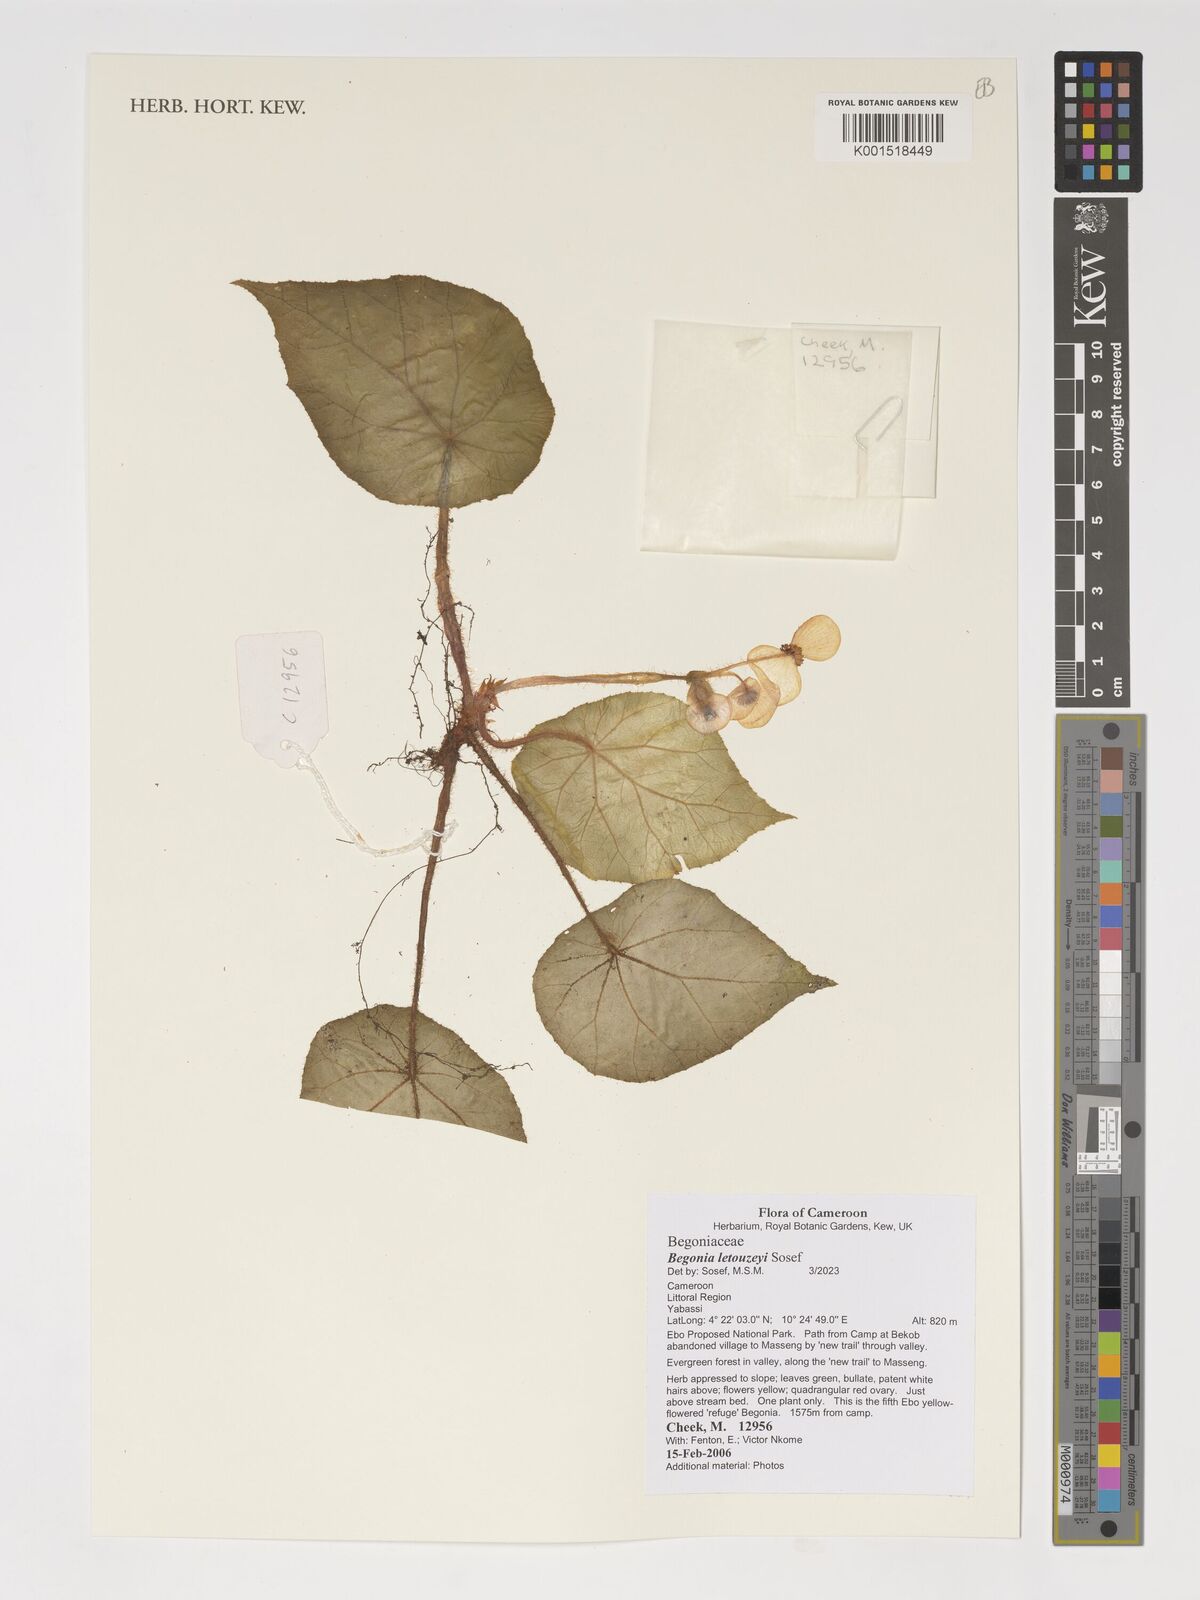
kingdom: Plantae
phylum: Tracheophyta
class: Magnoliopsida
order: Cucurbitales
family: Begoniaceae
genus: Begonia
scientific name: Begonia letouzeyi
